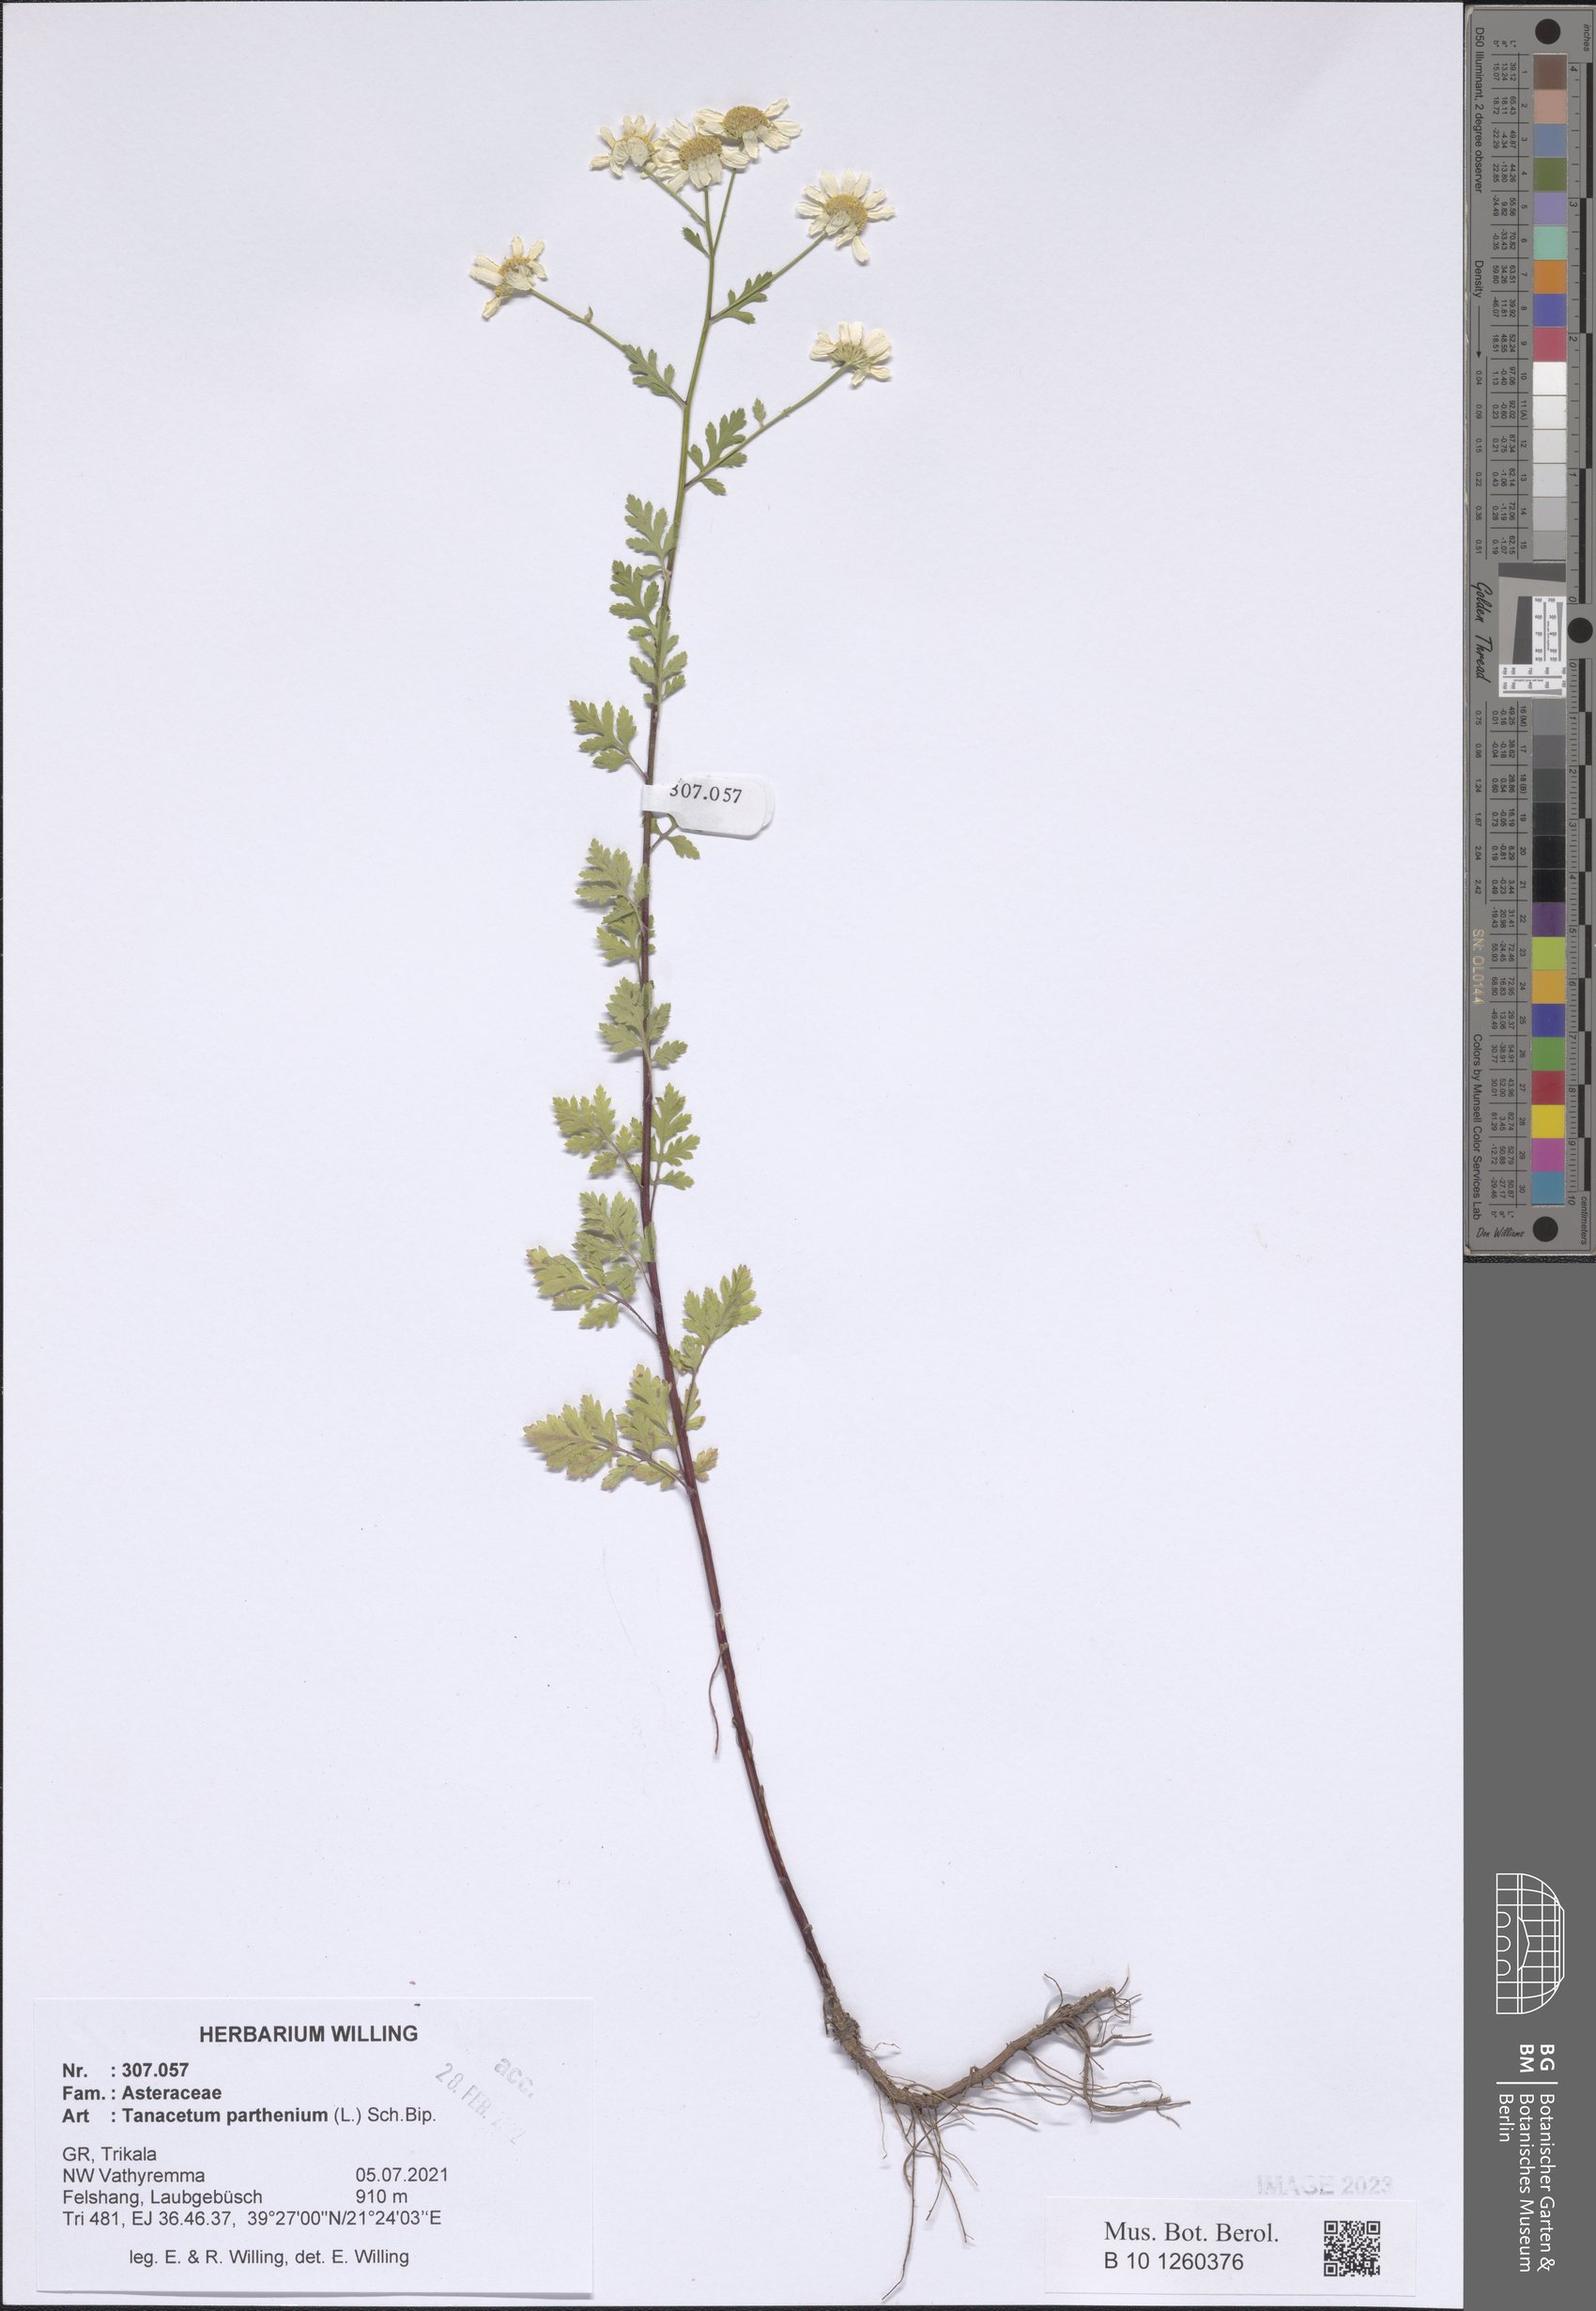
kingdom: Plantae
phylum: Tracheophyta
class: Magnoliopsida
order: Asterales
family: Asteraceae
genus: Tanacetum
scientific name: Tanacetum parthenium
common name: Feverfew
